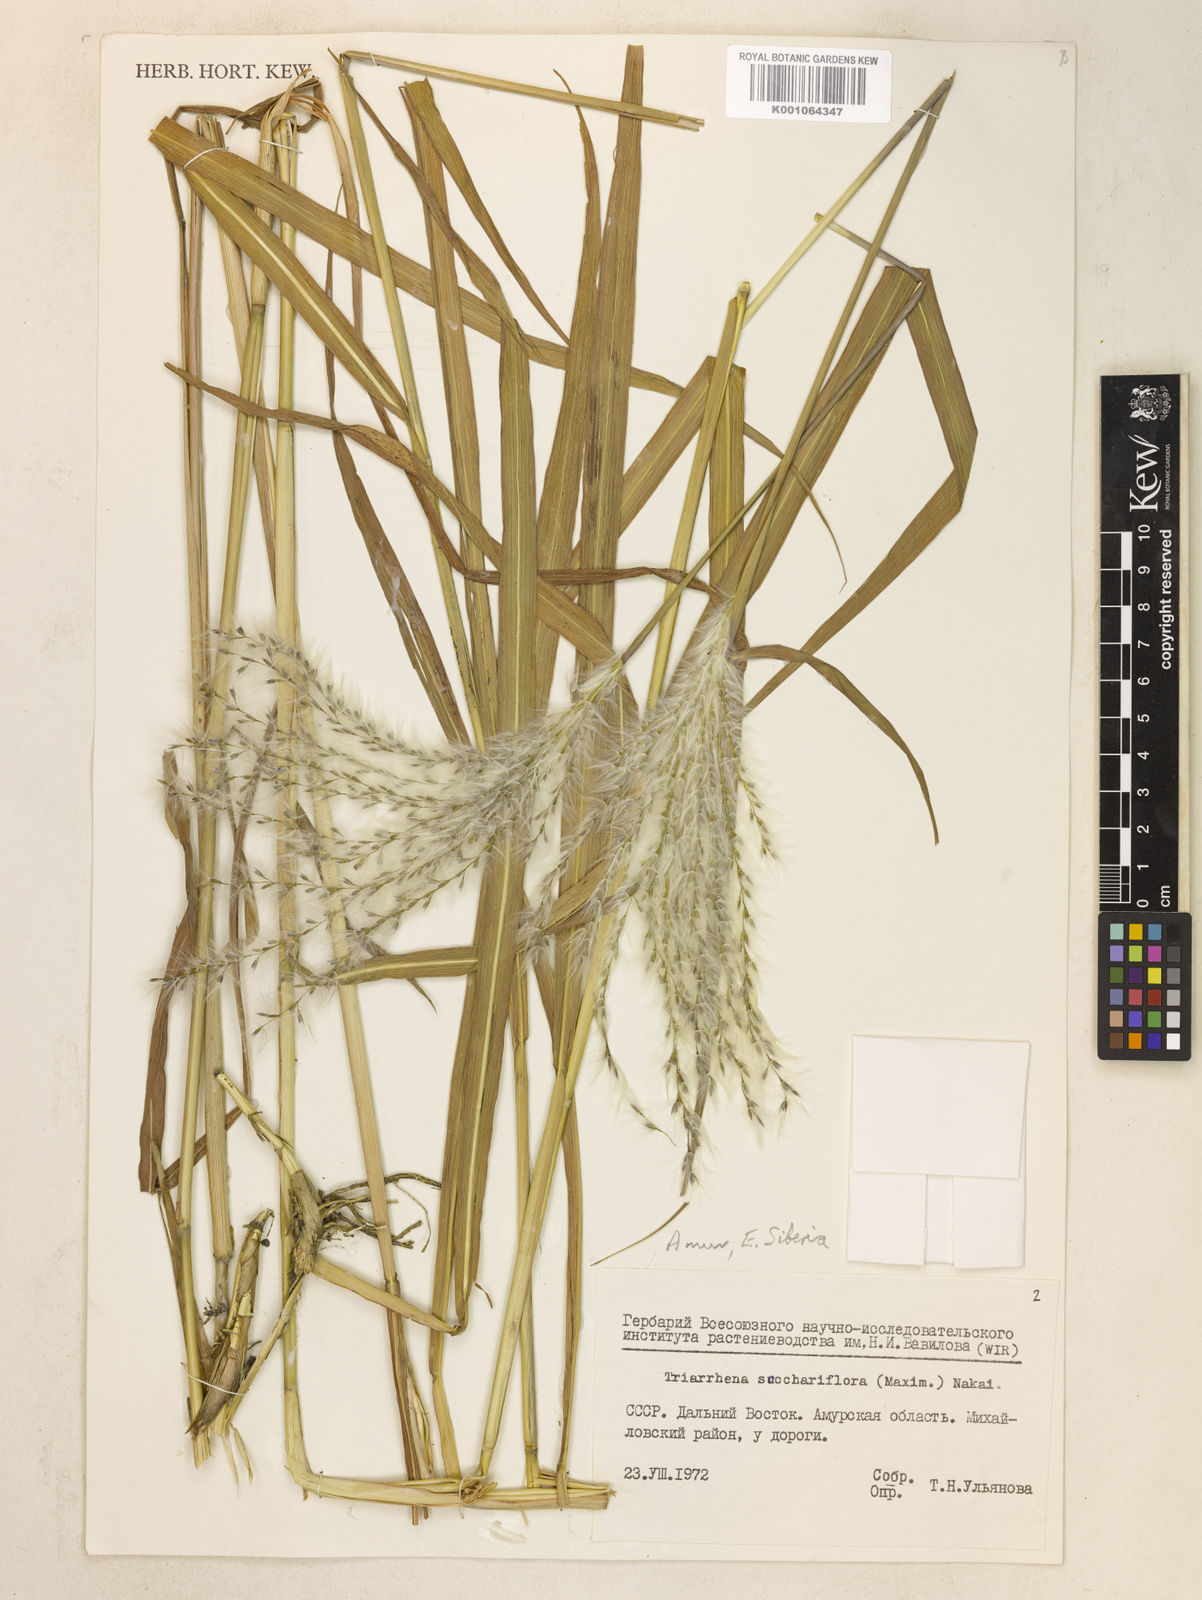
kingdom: Plantae
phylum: Tracheophyta
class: Liliopsida
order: Poales
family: Poaceae
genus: Miscanthus
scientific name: Miscanthus
